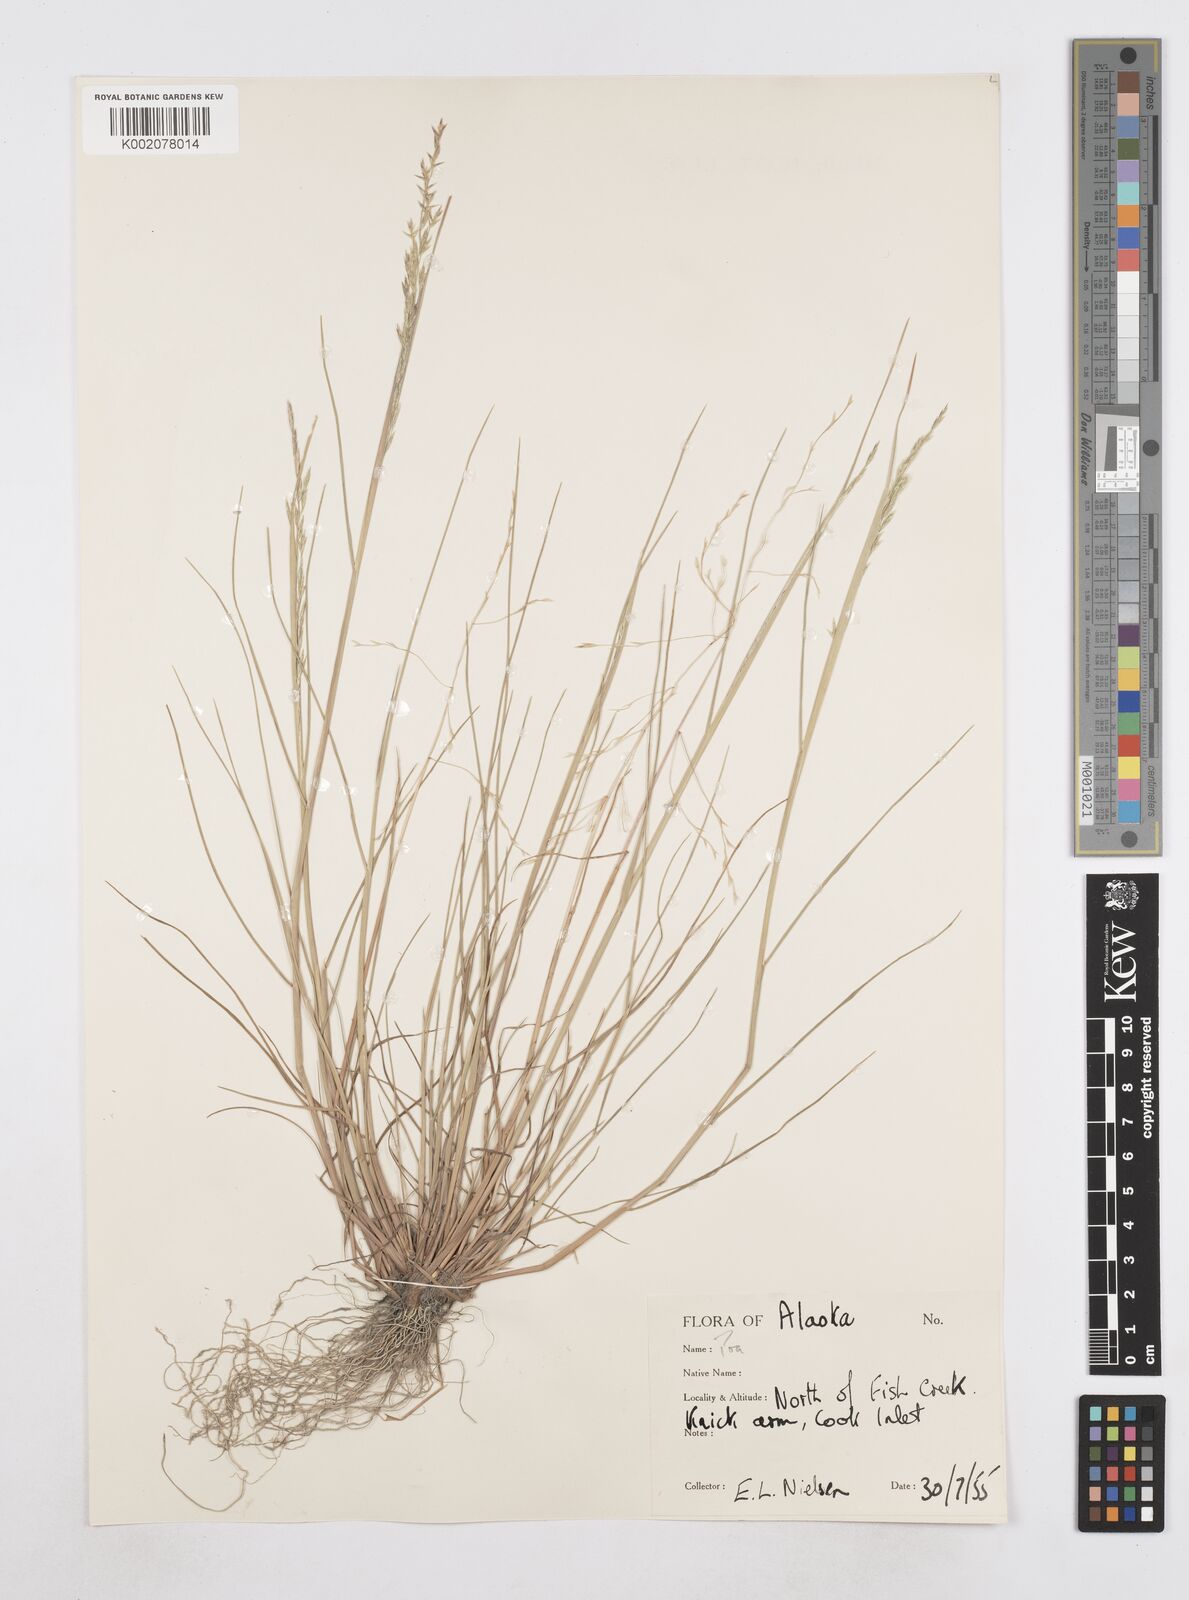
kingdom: Plantae
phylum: Tracheophyta
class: Liliopsida
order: Poales
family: Poaceae
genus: Poa
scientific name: Poa
